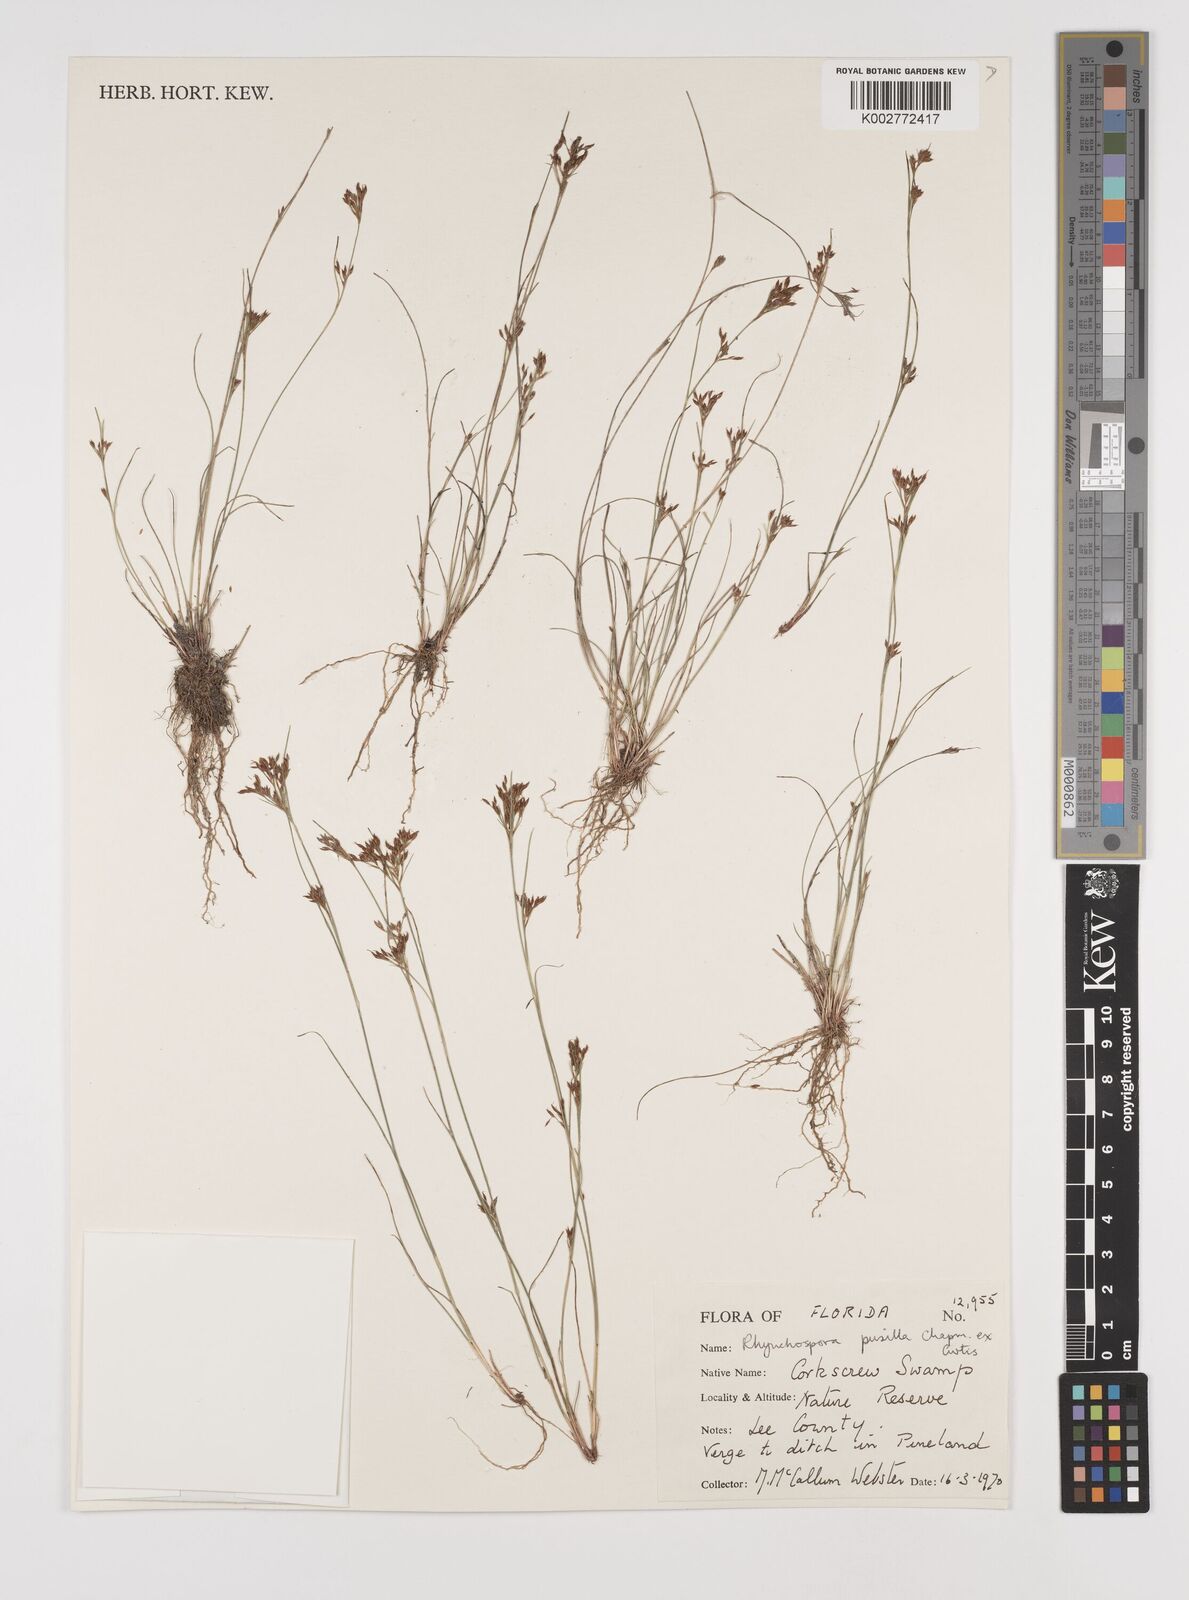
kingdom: Plantae
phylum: Tracheophyta
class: Liliopsida
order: Poales
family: Cyperaceae
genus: Rhynchospora
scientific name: Rhynchospora intermixta
